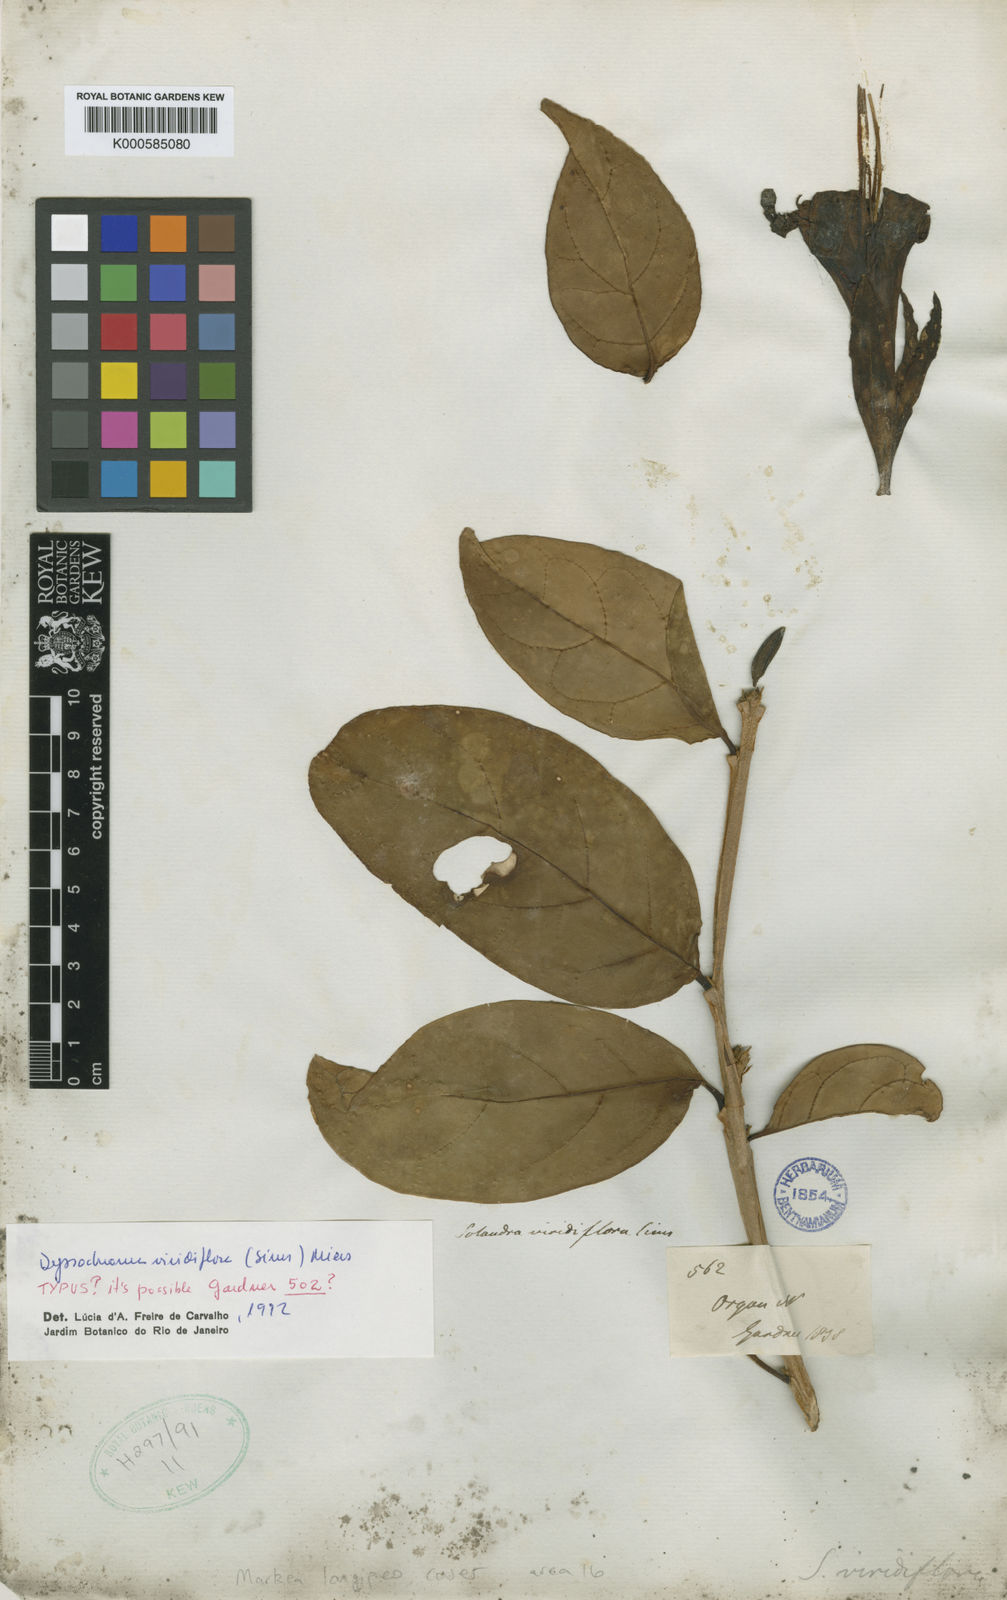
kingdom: Plantae
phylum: Tracheophyta
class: Magnoliopsida
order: Solanales
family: Solanaceae
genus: Dyssochroma
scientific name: Dyssochroma viridiflorum
